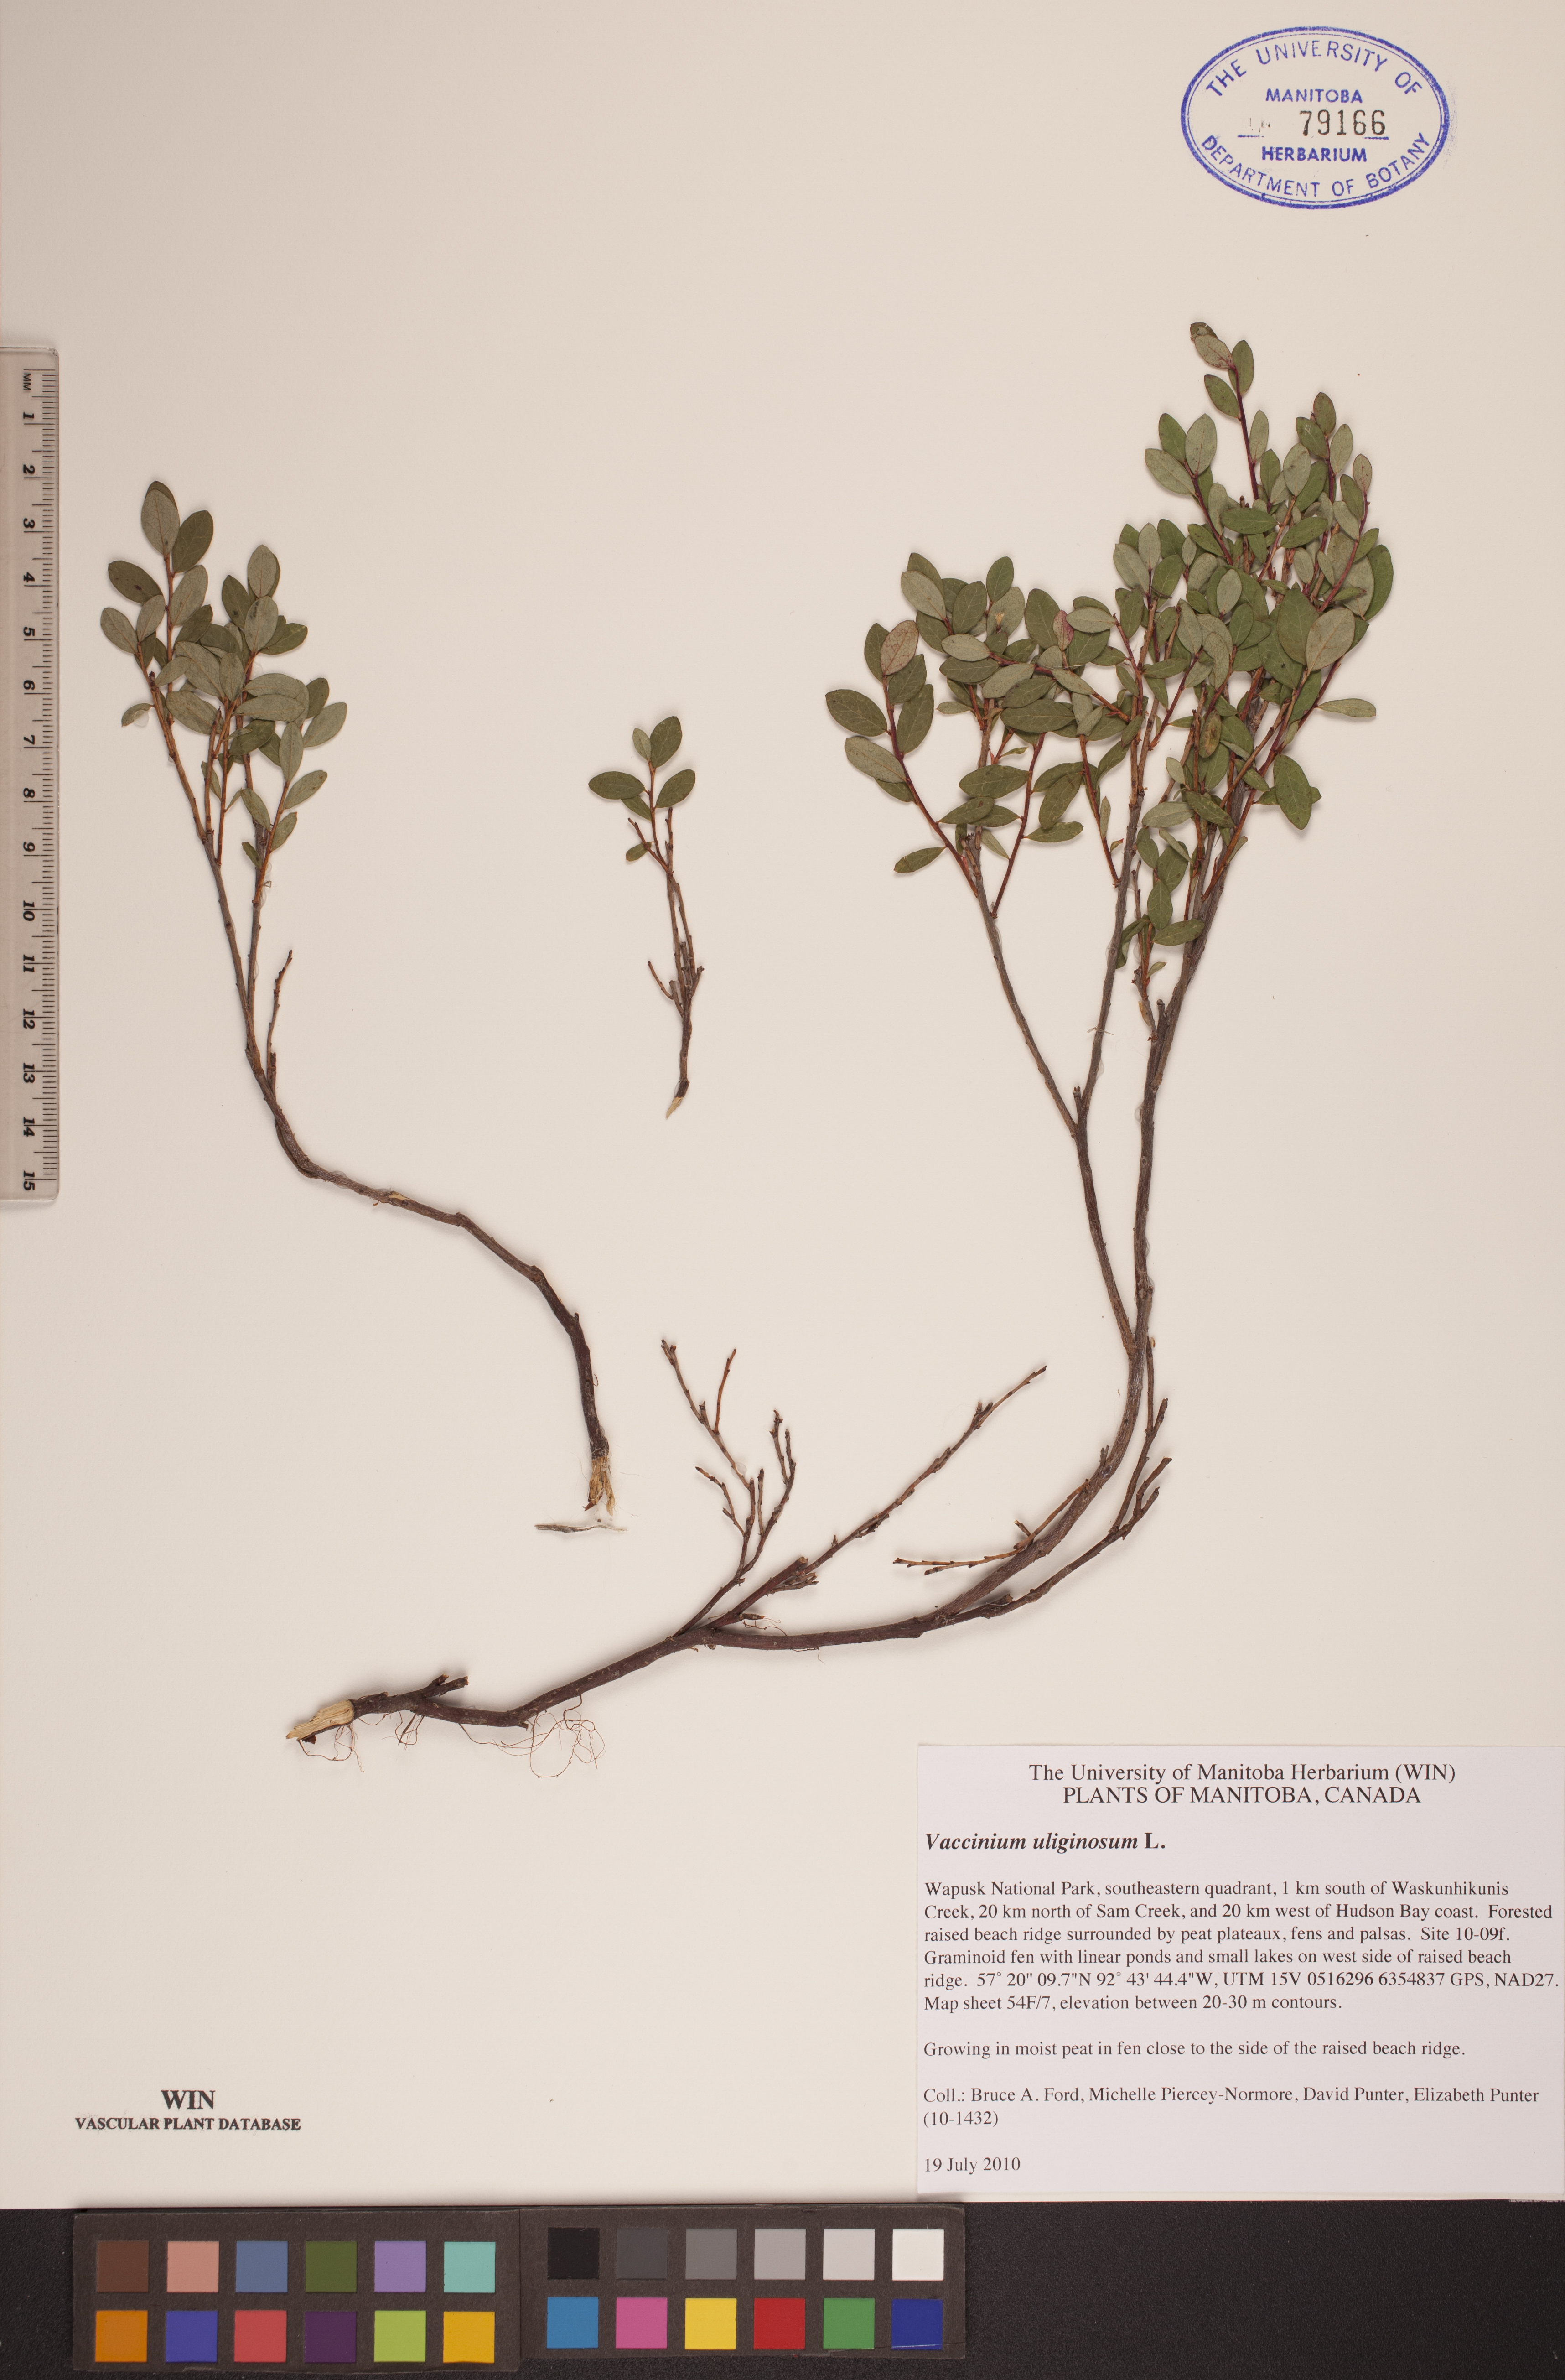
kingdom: Plantae
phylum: Tracheophyta
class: Magnoliopsida
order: Ericales
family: Ericaceae
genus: Vaccinium
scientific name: Vaccinium uliginosum
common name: Bog bilberry
